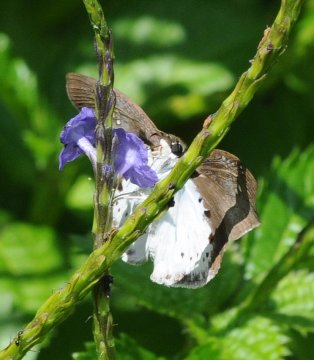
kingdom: Animalia
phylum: Arthropoda
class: Insecta
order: Lepidoptera
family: Hesperiidae
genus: Sarangesa
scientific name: Sarangesa motozi
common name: Forest Elfin
